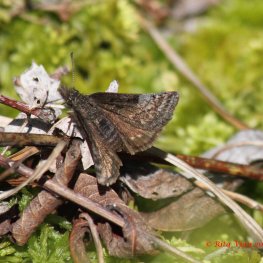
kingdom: Animalia
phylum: Arthropoda
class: Insecta
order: Lepidoptera
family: Hesperiidae
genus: Erynnis
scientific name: Erynnis icelus
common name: Dreamy Duskywing
